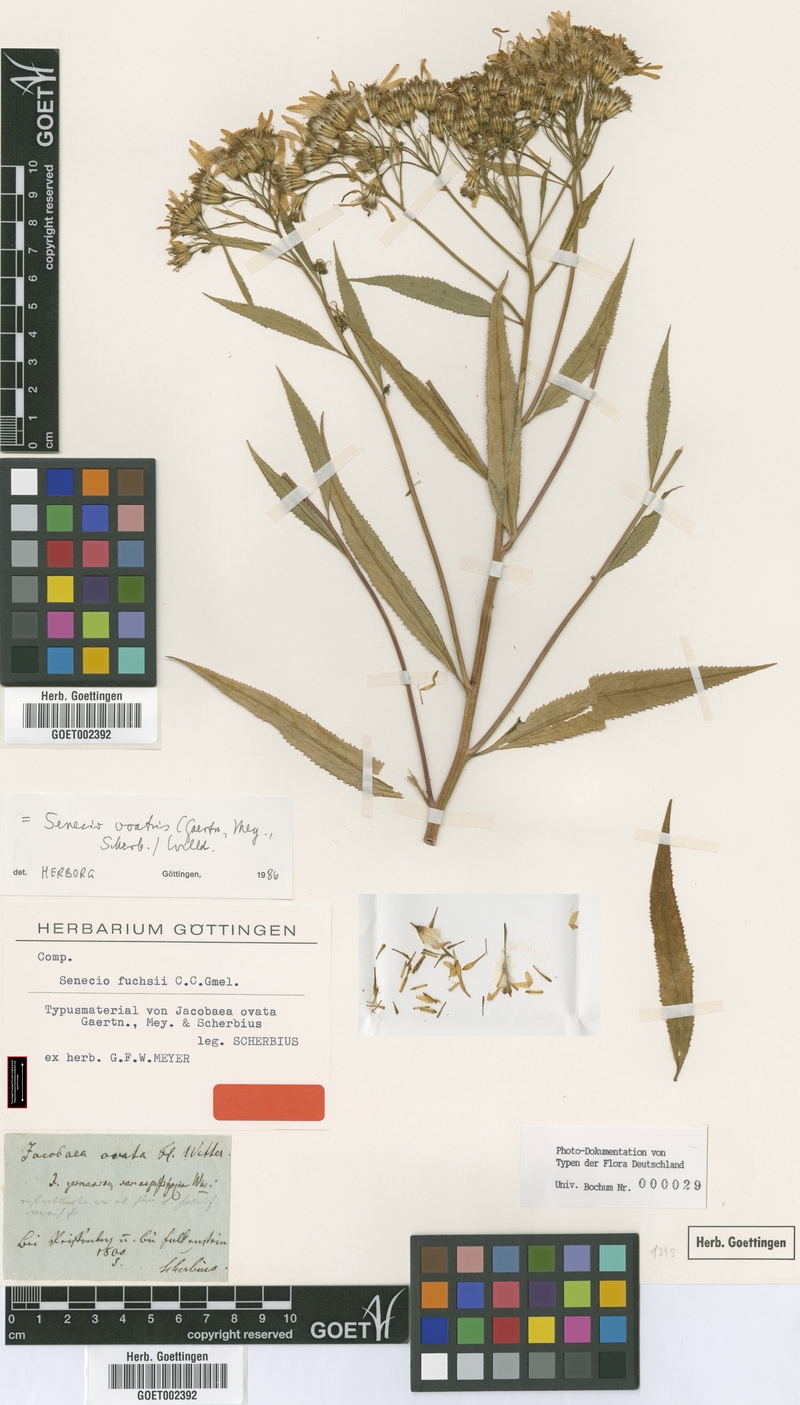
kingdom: Plantae
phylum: Tracheophyta
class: Magnoliopsida
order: Asterales
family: Asteraceae
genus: Senecio
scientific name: Senecio ovatus
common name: Wood ragwort
